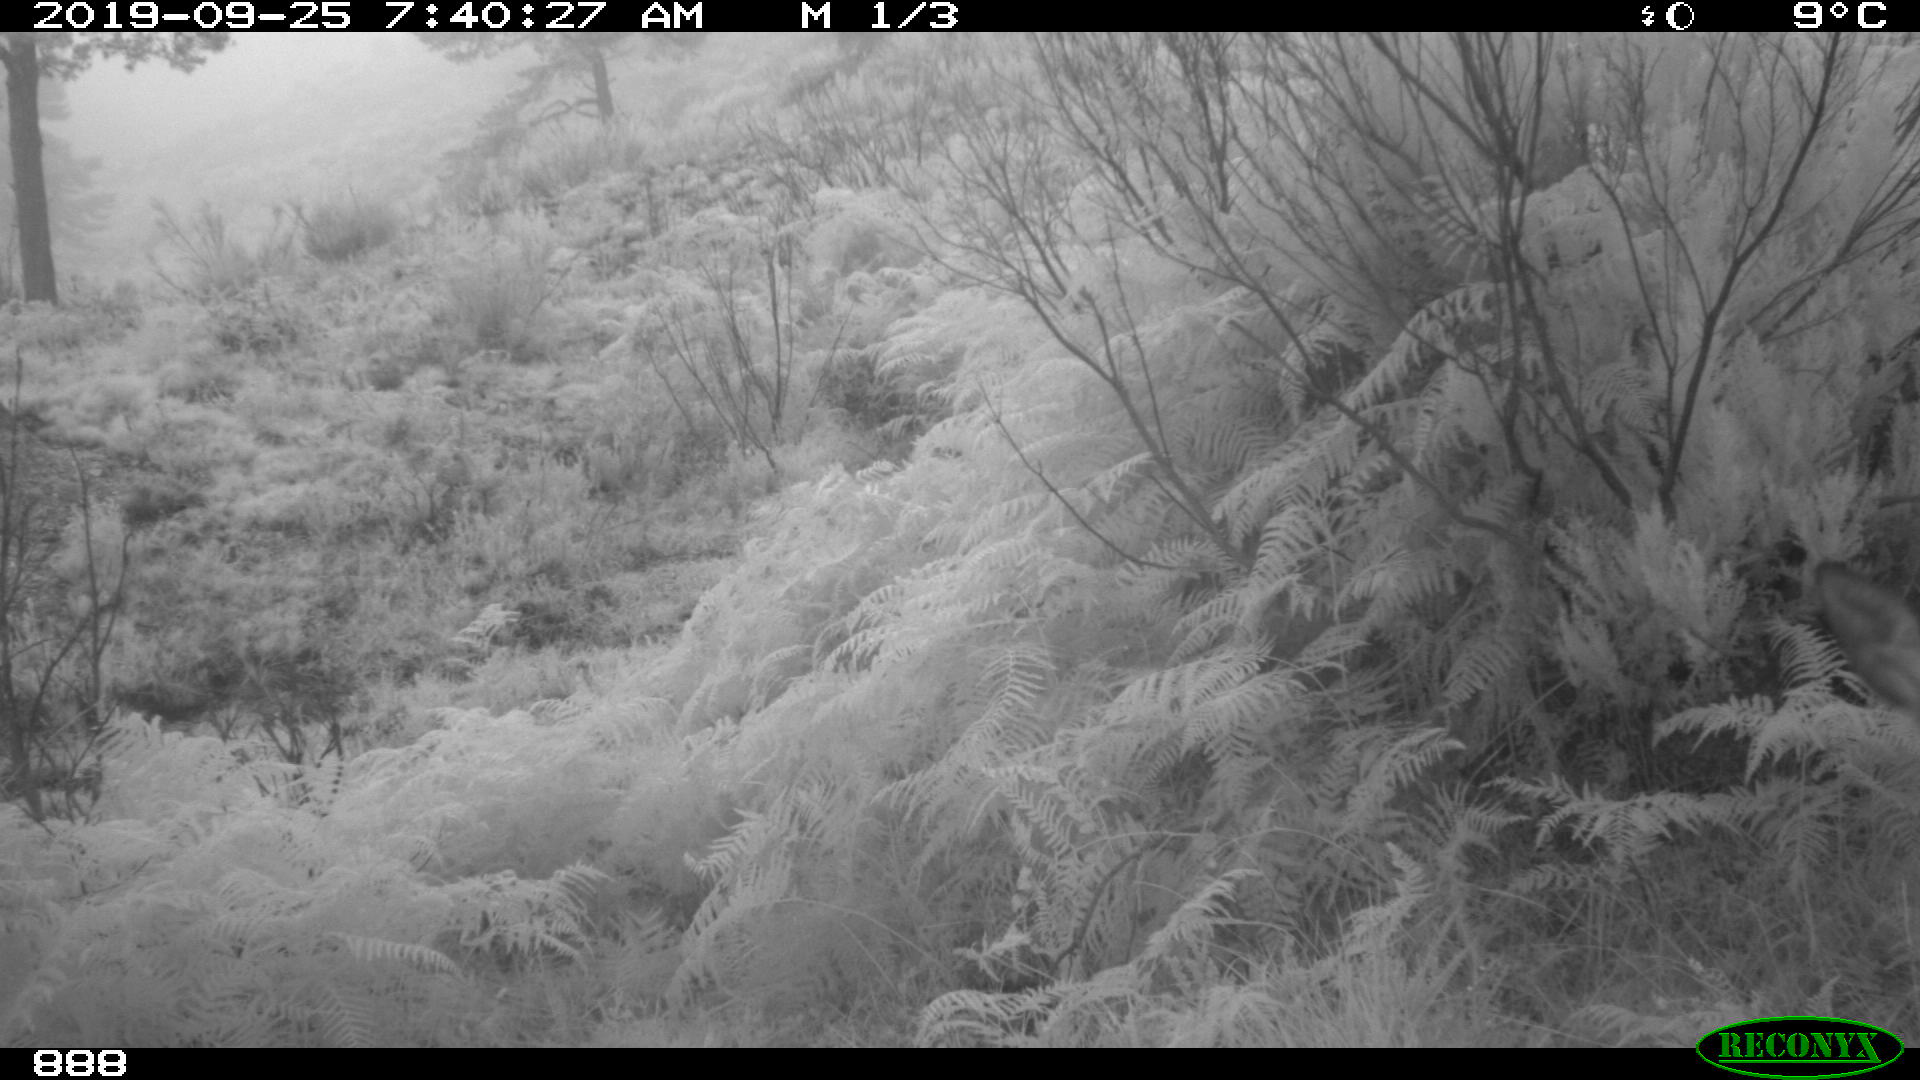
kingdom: Animalia
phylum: Chordata
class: Mammalia
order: Artiodactyla
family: Cervidae
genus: Capreolus
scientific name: Capreolus capreolus
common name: Western roe deer
